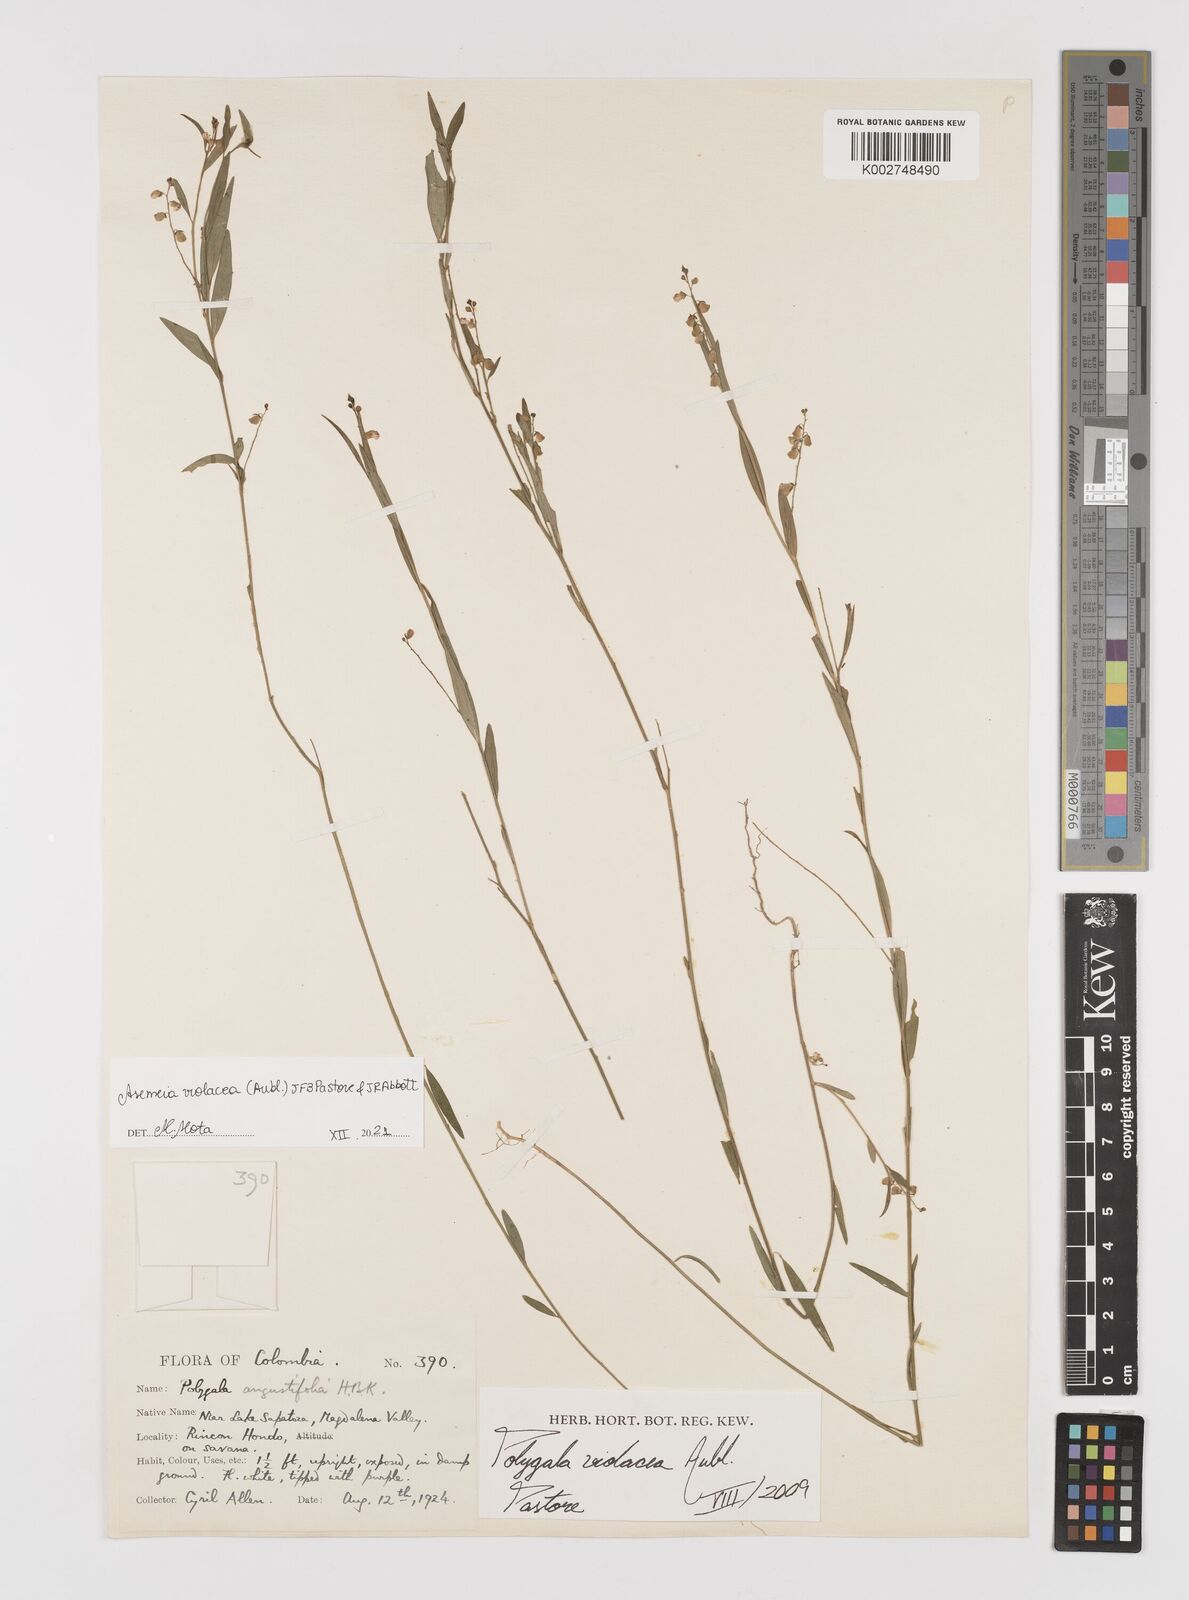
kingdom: Plantae
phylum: Tracheophyta
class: Magnoliopsida
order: Fabales
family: Polygalaceae
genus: Asemeia
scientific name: Asemeia violacea
